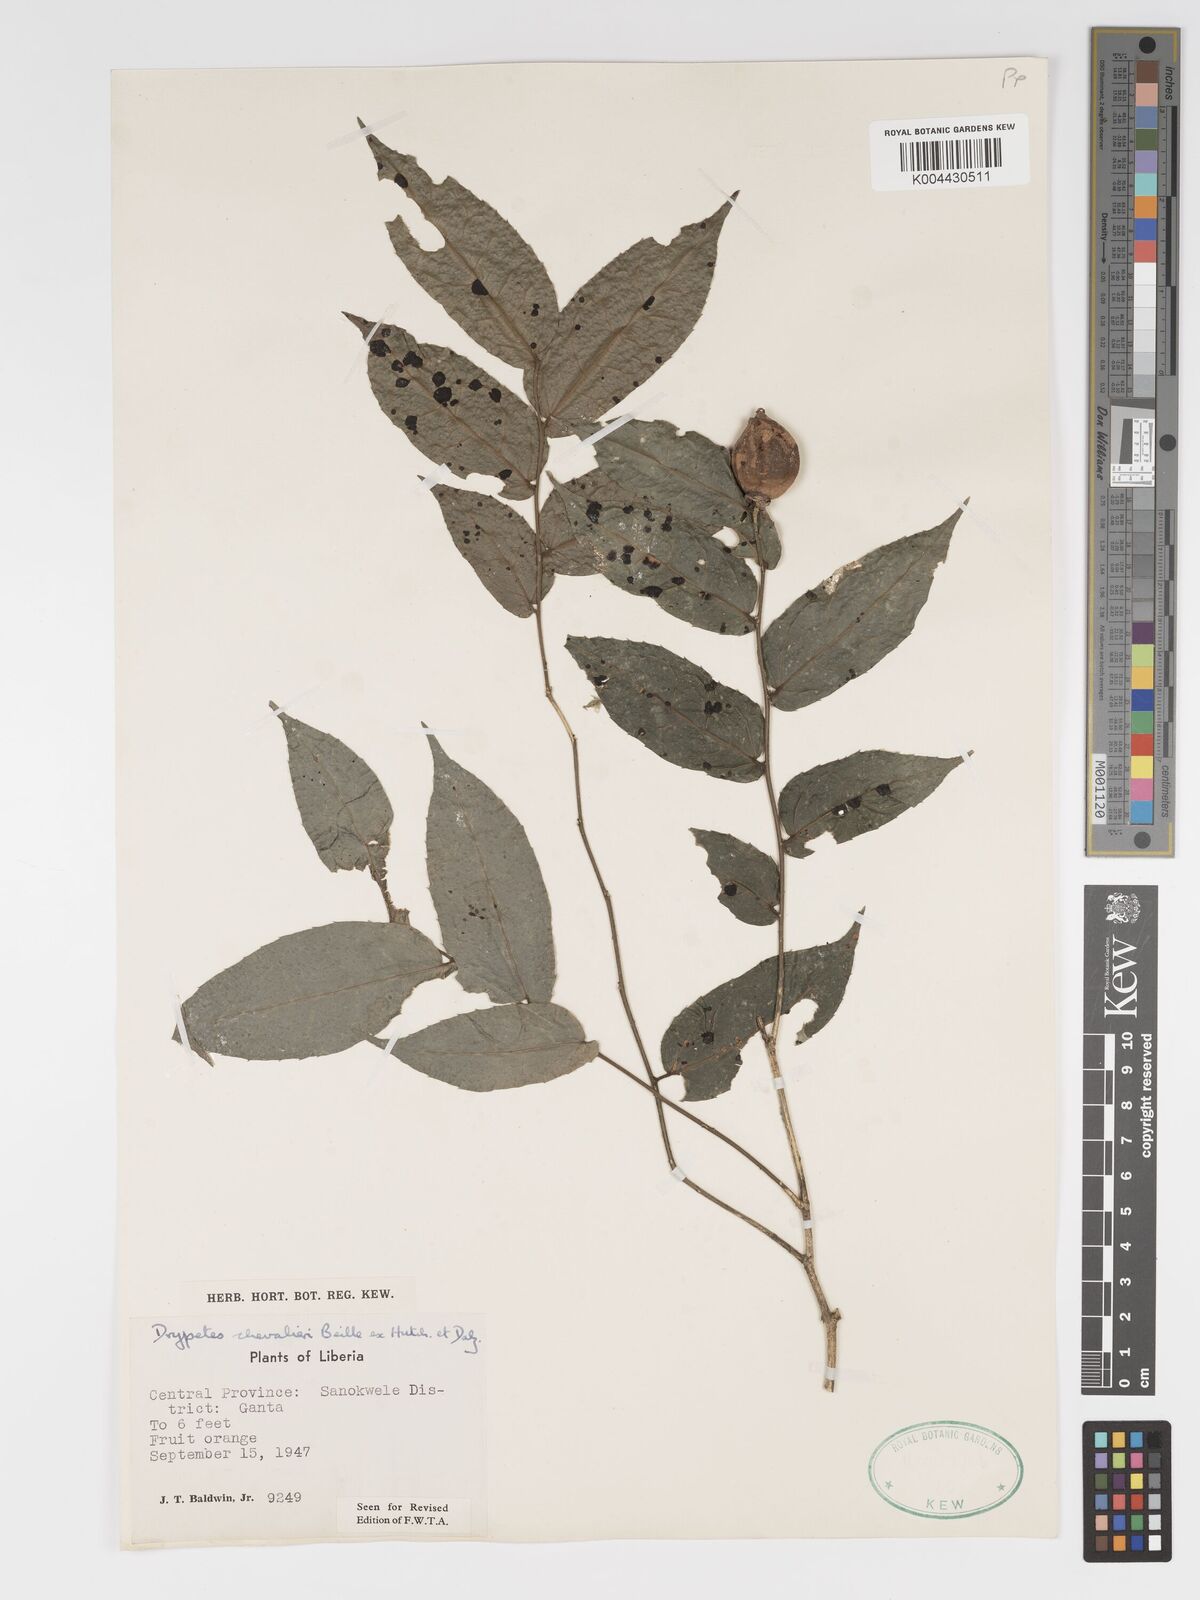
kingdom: Plantae
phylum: Tracheophyta
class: Magnoliopsida
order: Malpighiales
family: Putranjivaceae
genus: Drypetes
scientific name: Drypetes chevalieri
